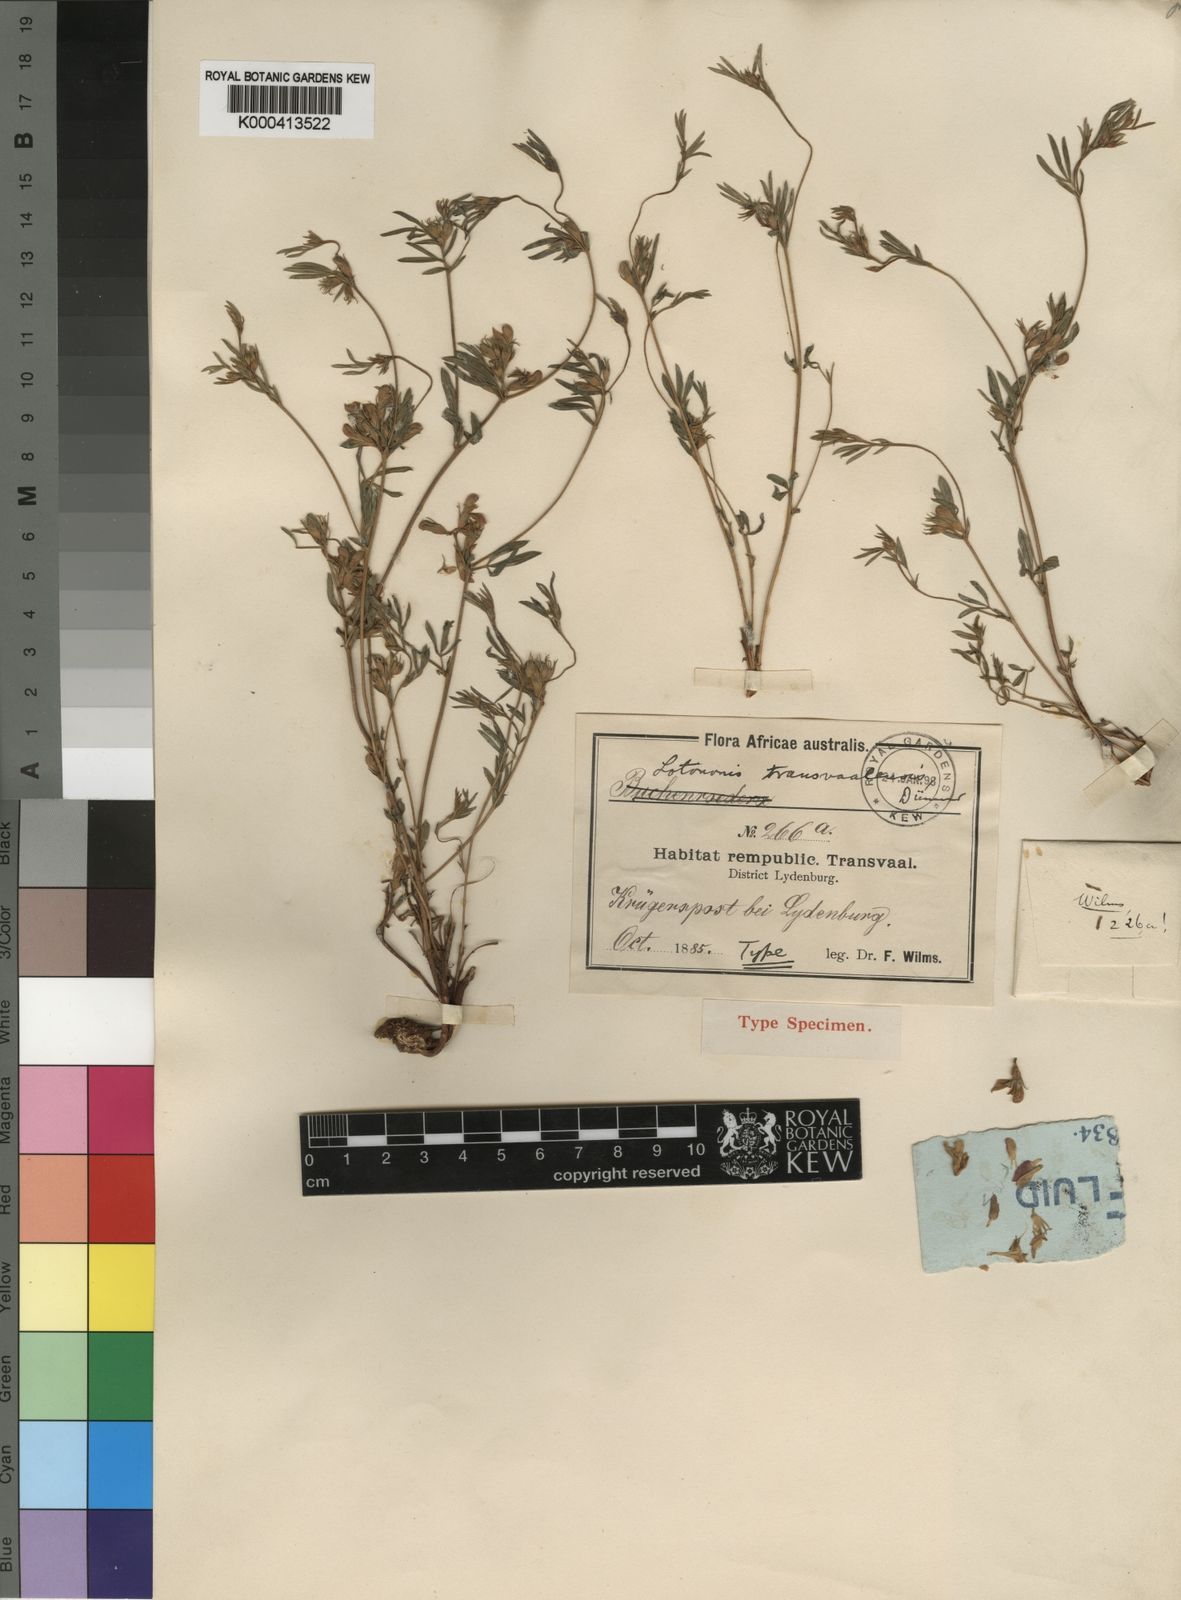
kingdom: Plantae
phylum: Tracheophyta
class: Magnoliopsida
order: Fabales
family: Fabaceae
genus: Leobordea
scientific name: Leobordea carinata
